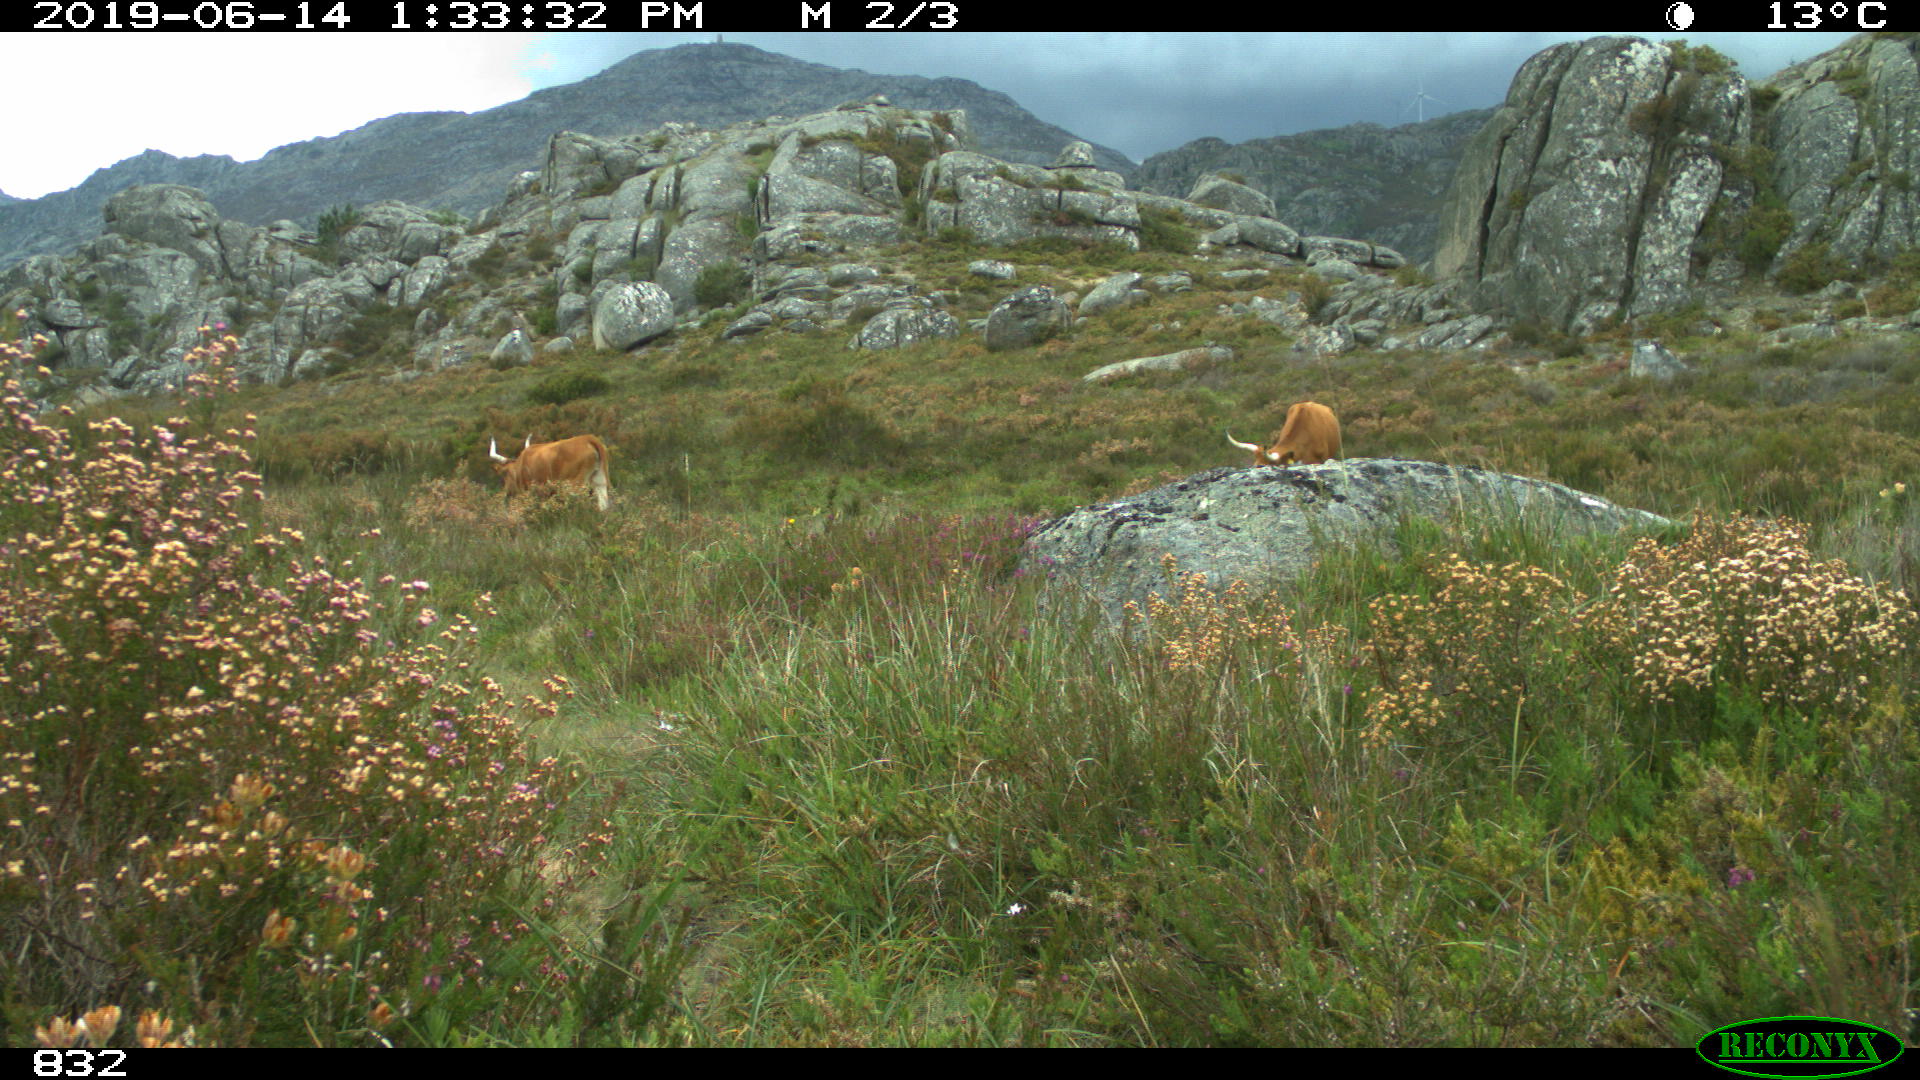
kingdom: Animalia
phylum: Chordata
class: Mammalia
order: Artiodactyla
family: Bovidae
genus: Bos
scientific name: Bos taurus
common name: Domesticated cattle
